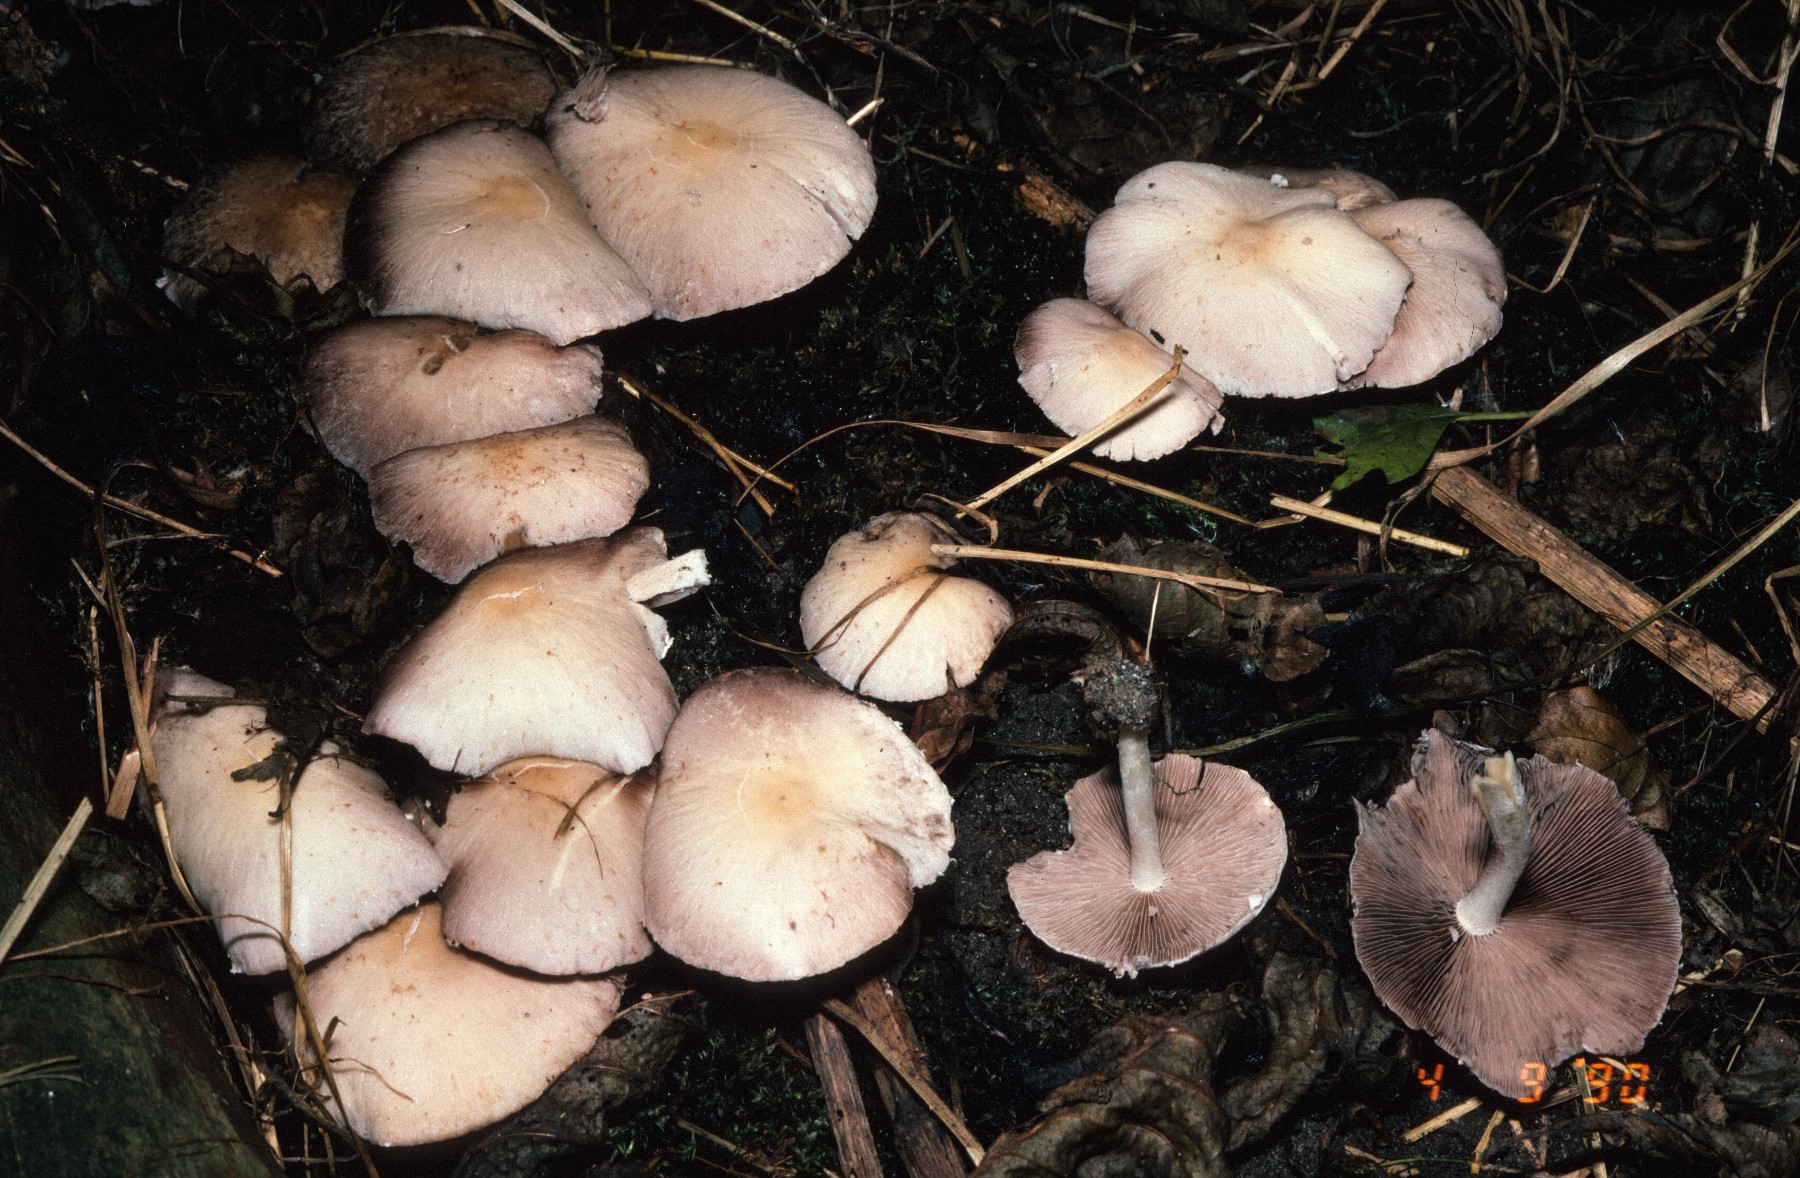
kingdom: Fungi
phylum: Basidiomycota
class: Agaricomycetes
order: Agaricales
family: Psathyrellaceae
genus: Candolleomyces
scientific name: Candolleomyces candolleanus
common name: Candolles mørkhat
